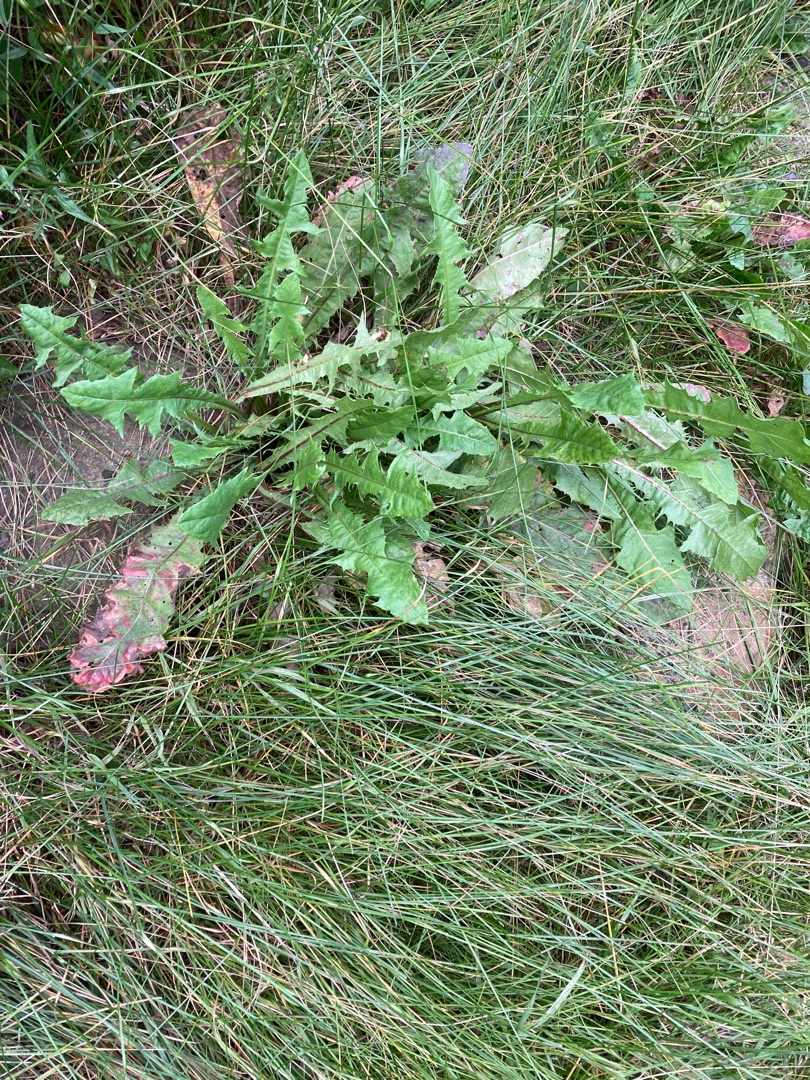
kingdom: Plantae
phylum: Tracheophyta
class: Magnoliopsida
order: Asterales
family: Asteraceae
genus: Taraxacum
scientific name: Taraxacum
